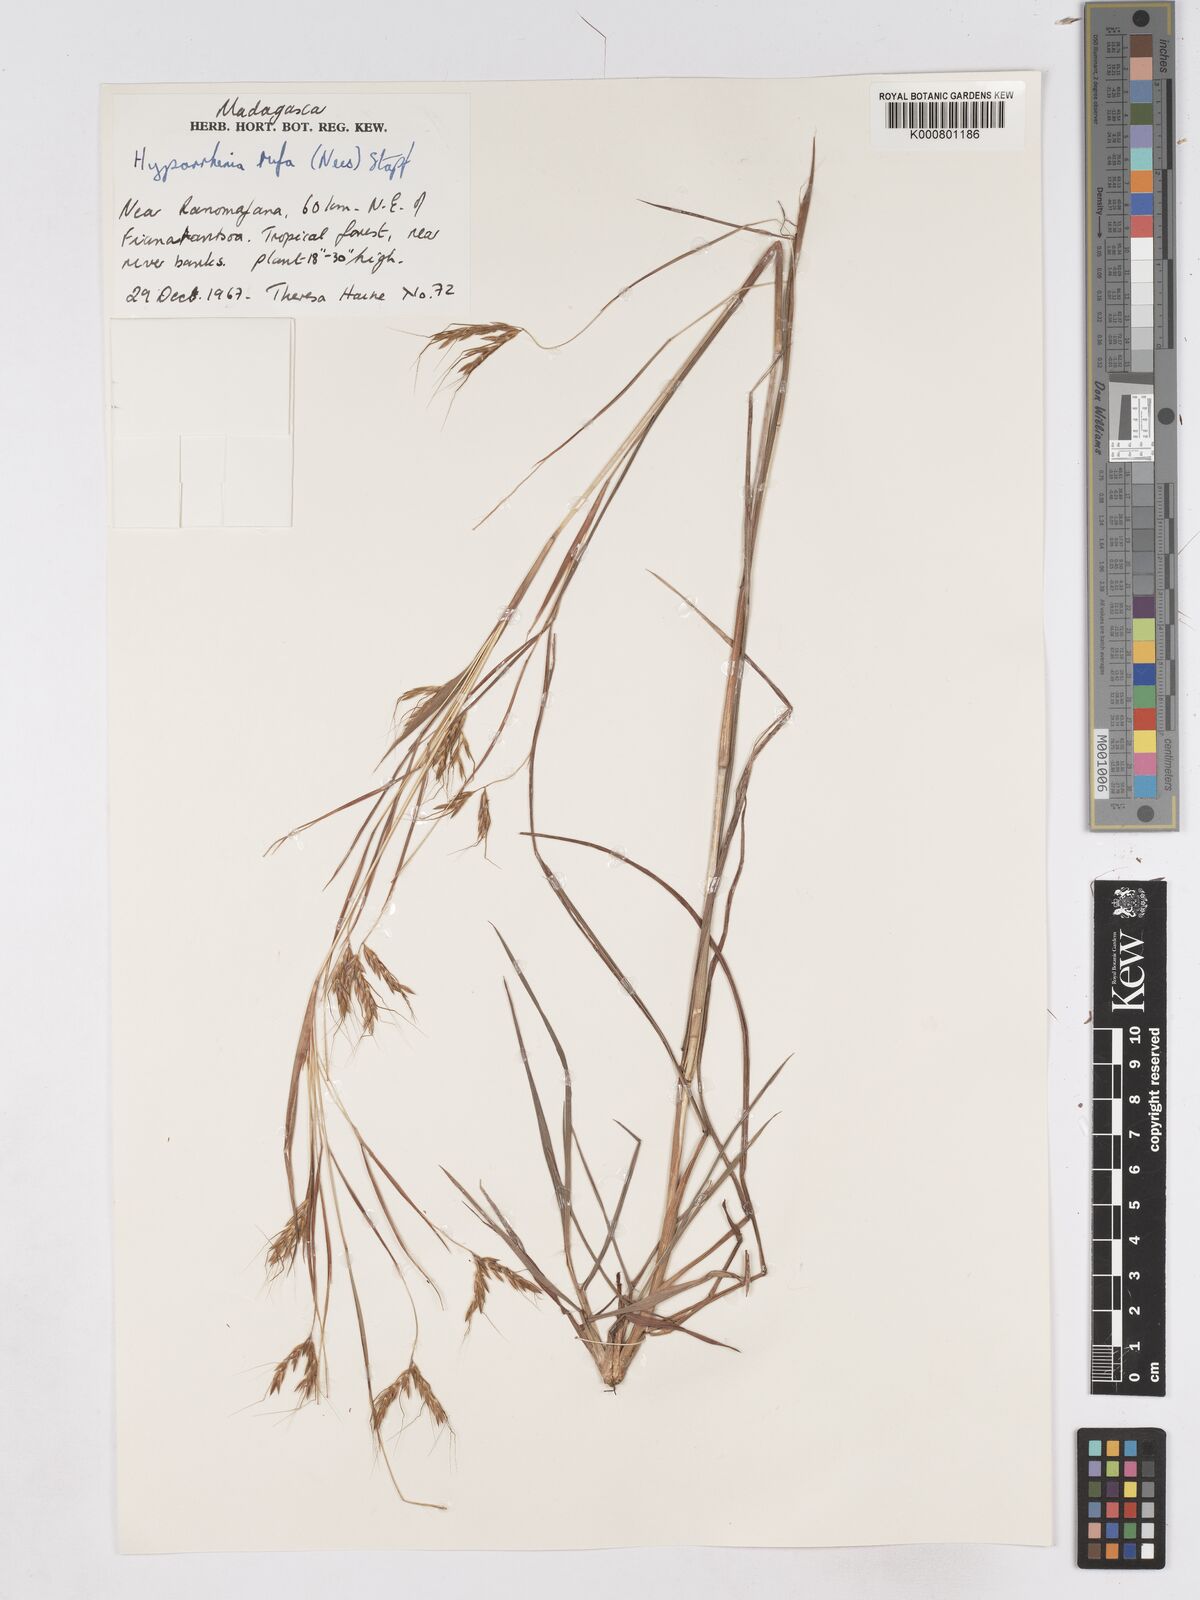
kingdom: Plantae
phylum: Tracheophyta
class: Liliopsida
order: Poales
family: Poaceae
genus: Hyparrhenia
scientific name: Hyparrhenia rufa
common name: Jaraguagrass
